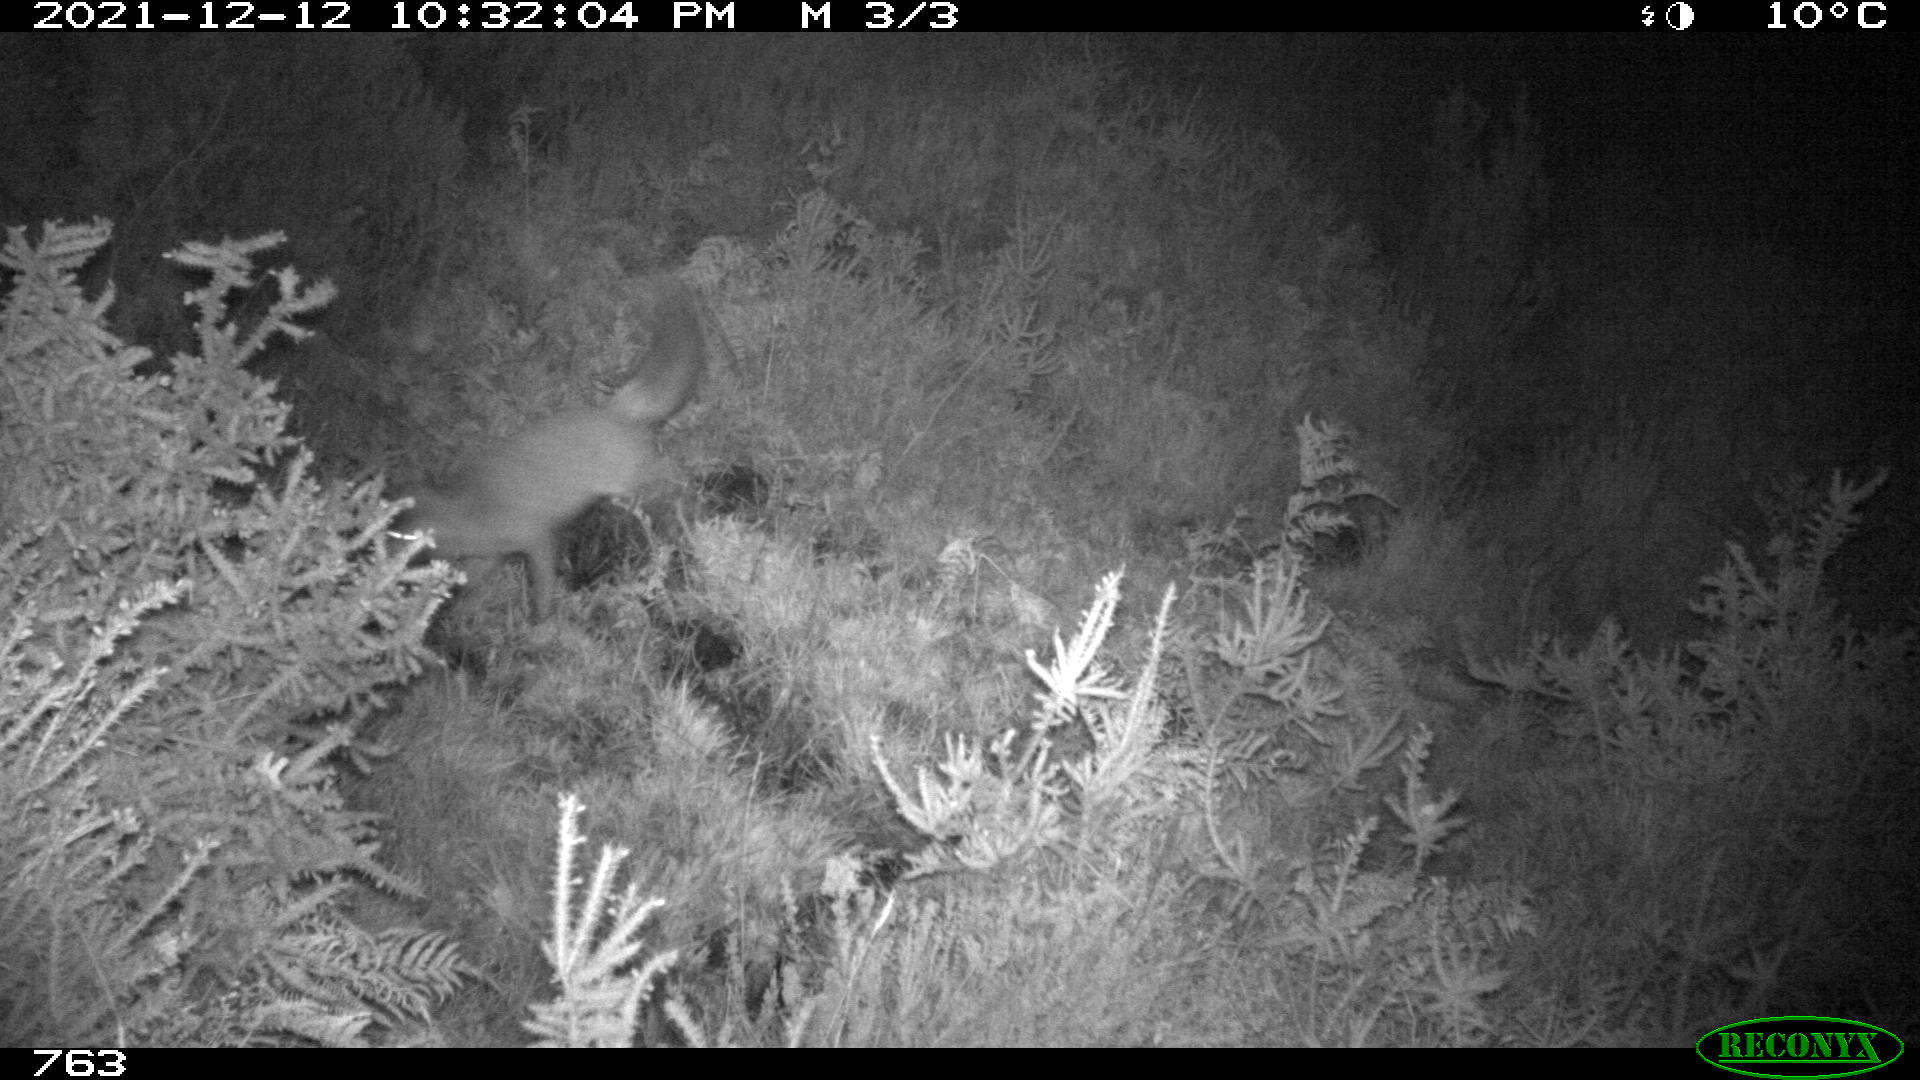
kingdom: Animalia
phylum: Chordata
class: Mammalia
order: Carnivora
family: Canidae
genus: Vulpes
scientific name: Vulpes vulpes
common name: Red fox
